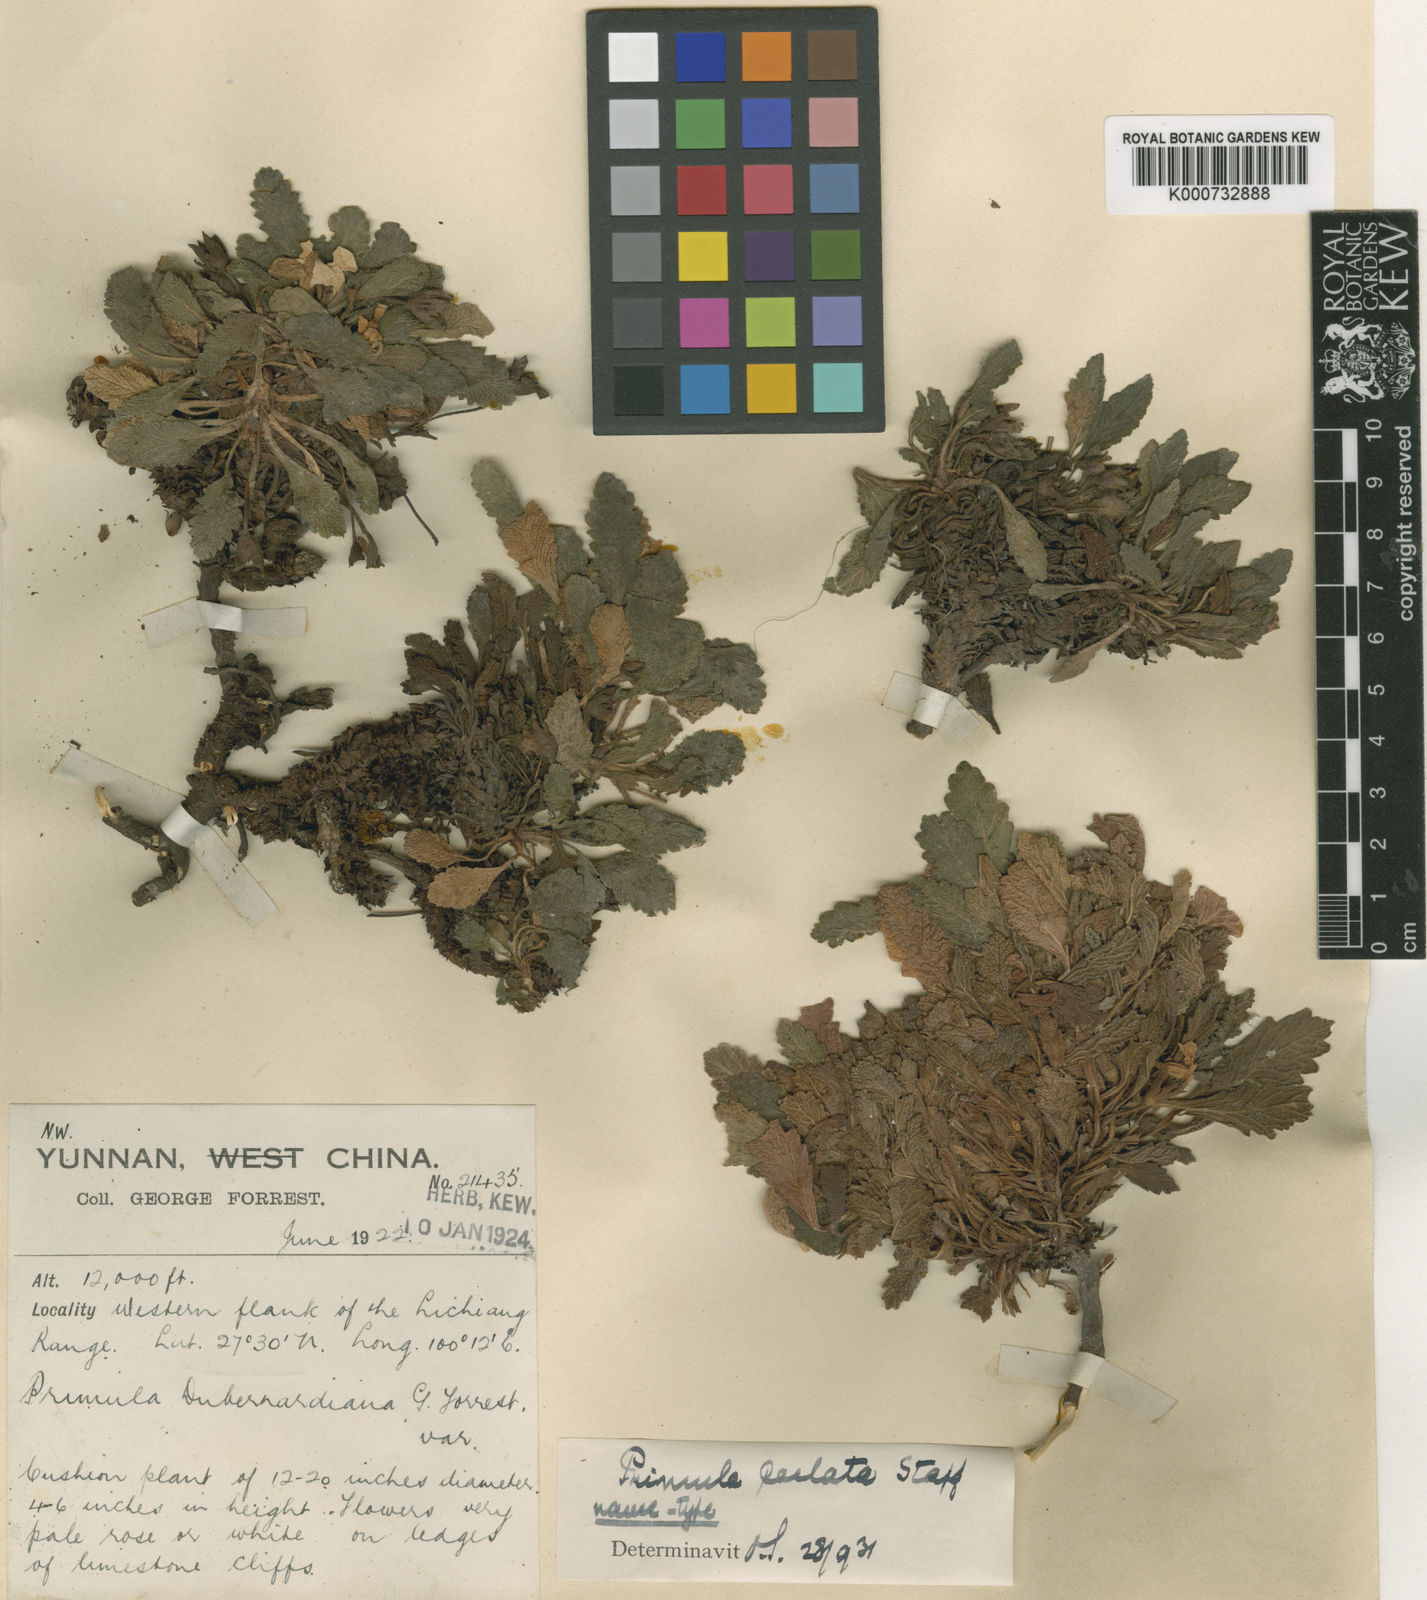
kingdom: Plantae
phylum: Tracheophyta
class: Magnoliopsida
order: Ericales
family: Primulaceae
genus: Primula
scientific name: Primula
